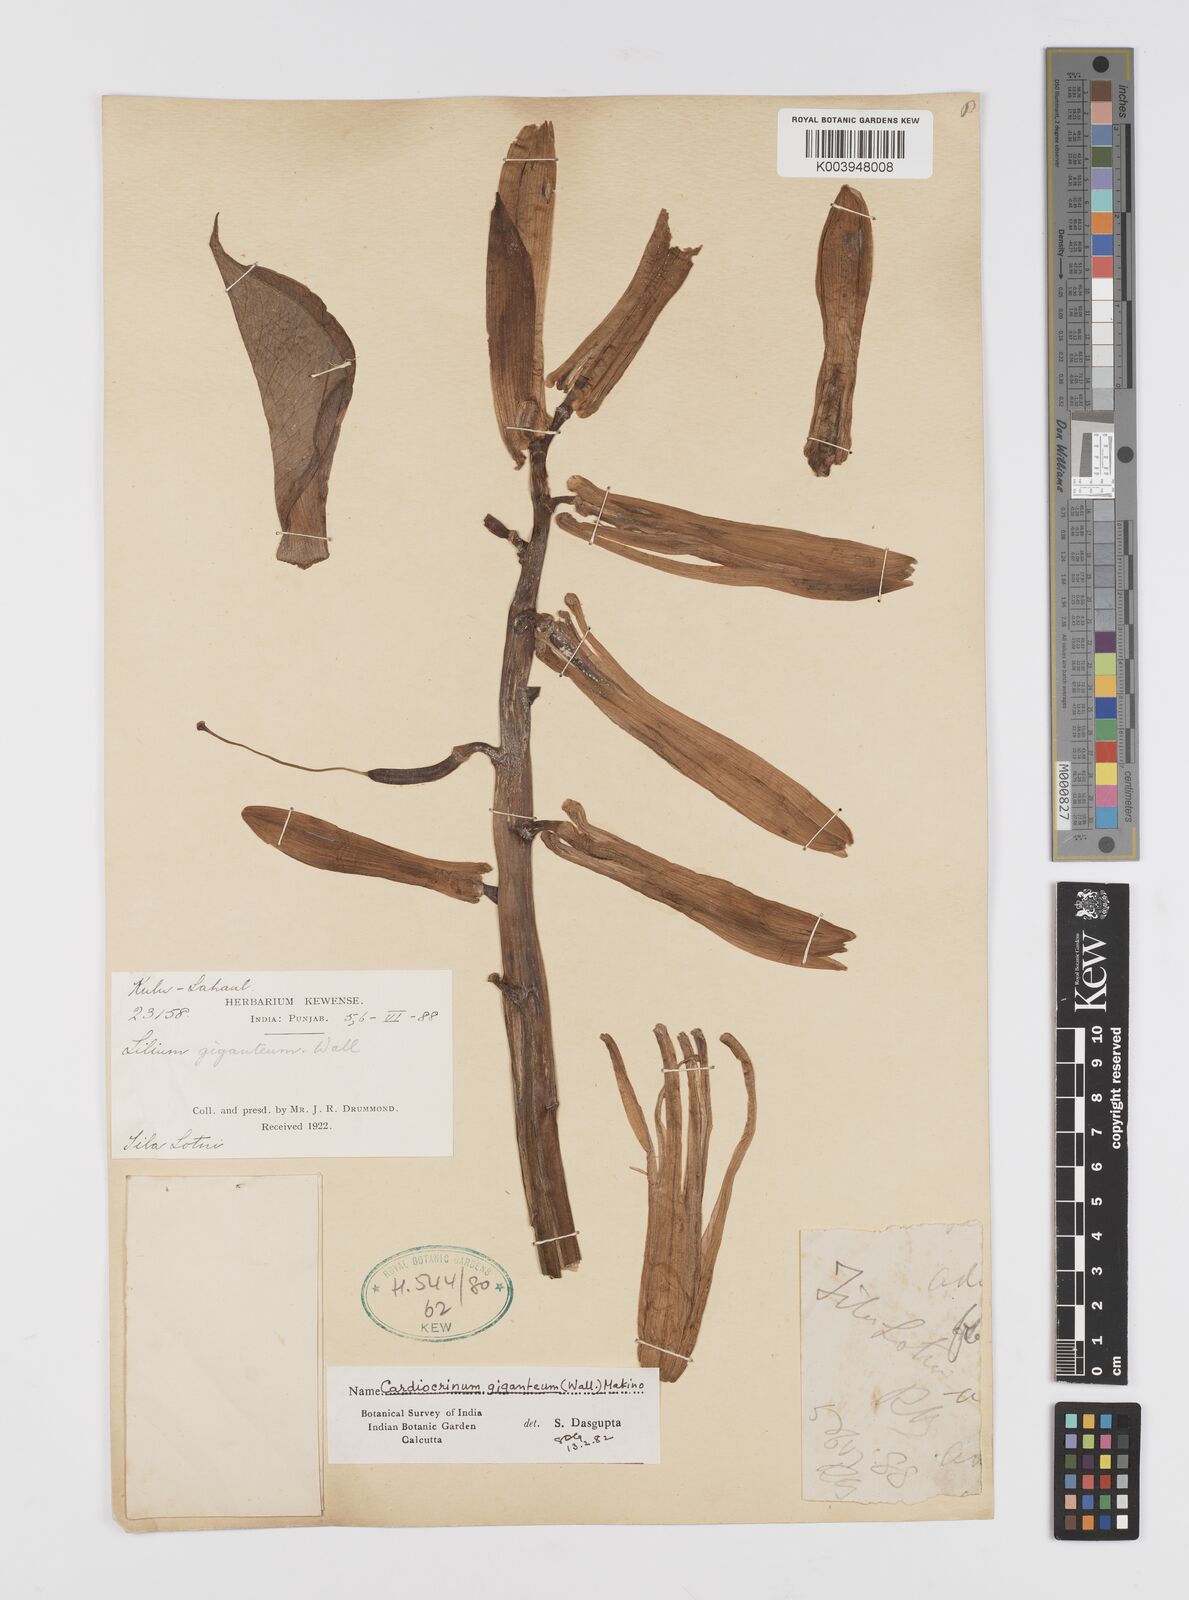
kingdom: Plantae
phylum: Tracheophyta
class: Liliopsida
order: Liliales
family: Liliaceae
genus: Cardiocrinum
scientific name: Cardiocrinum giganteum
